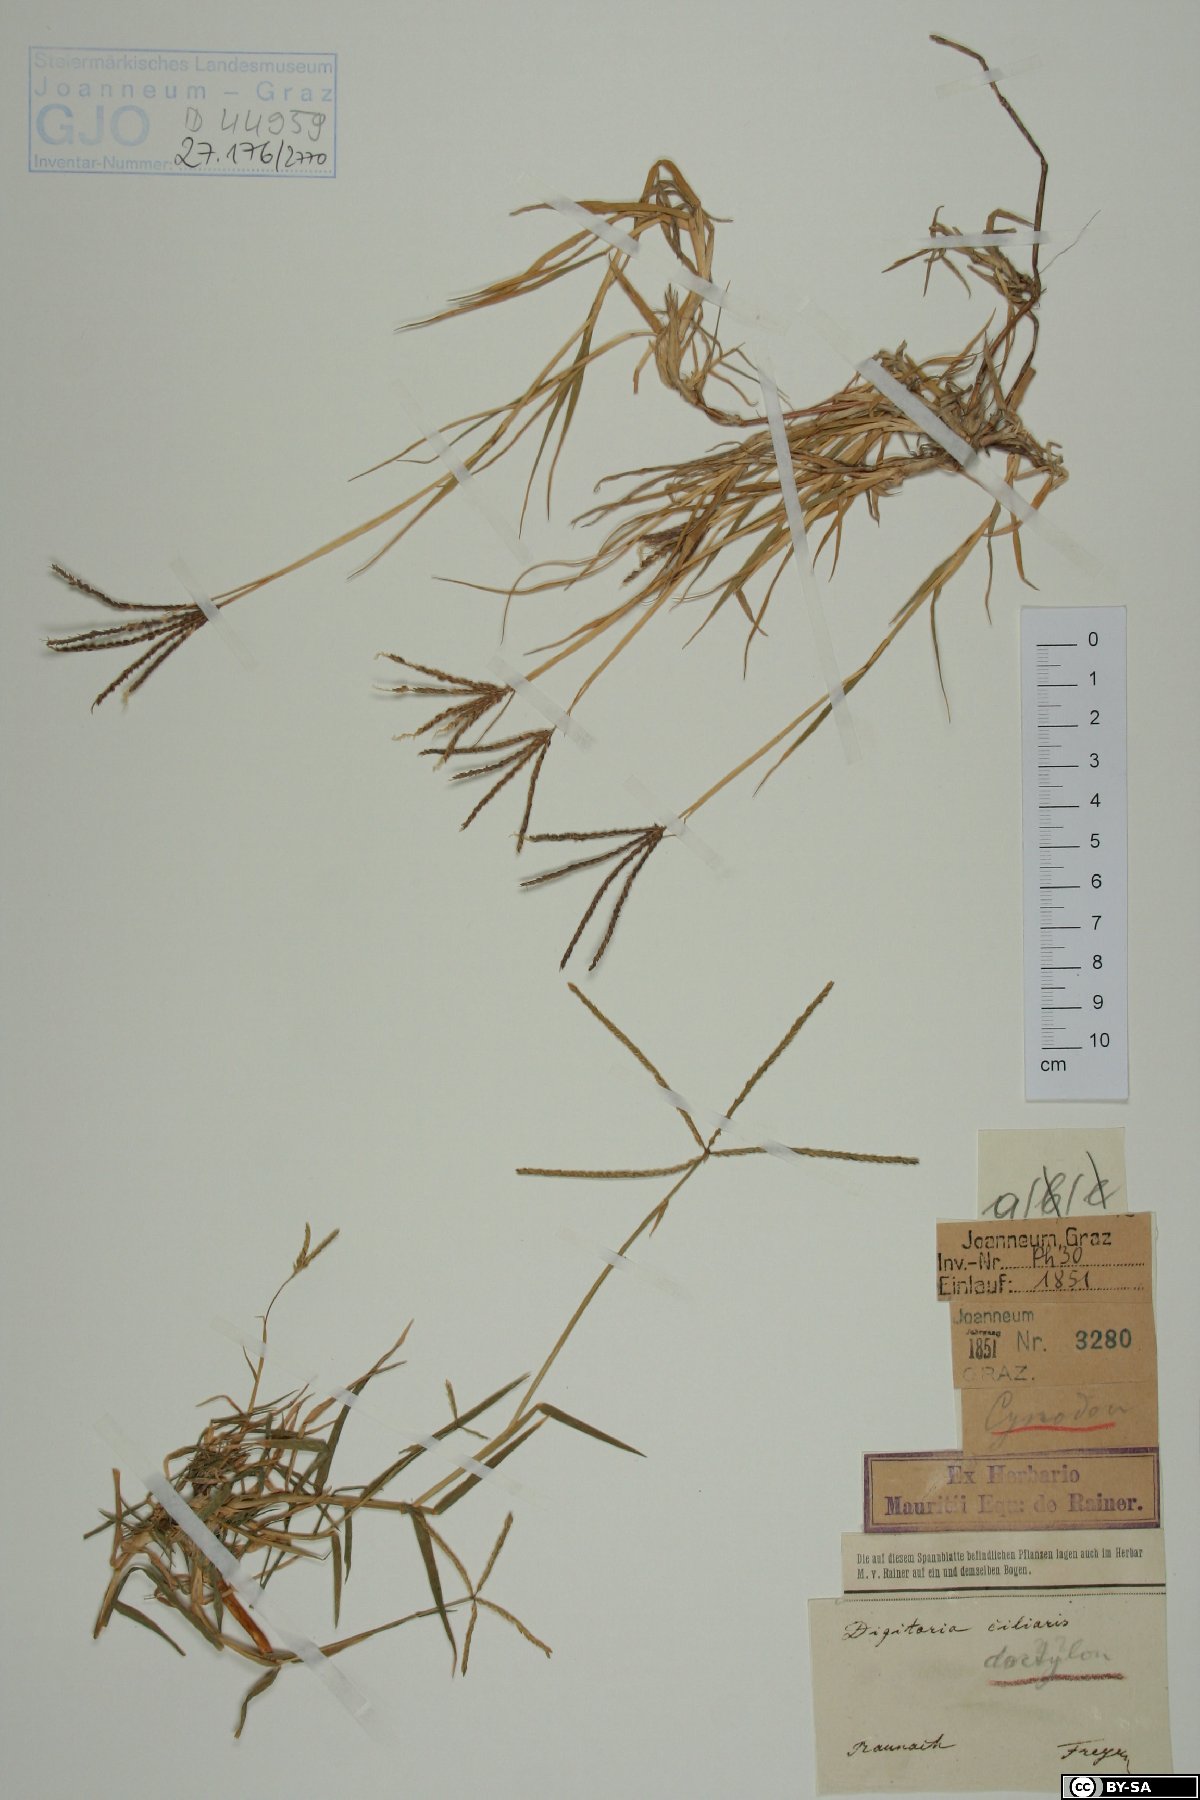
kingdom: Plantae
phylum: Tracheophyta
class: Liliopsida
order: Poales
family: Poaceae
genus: Digitaria
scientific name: Digitaria ciliaris
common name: Tropical finger-grass
